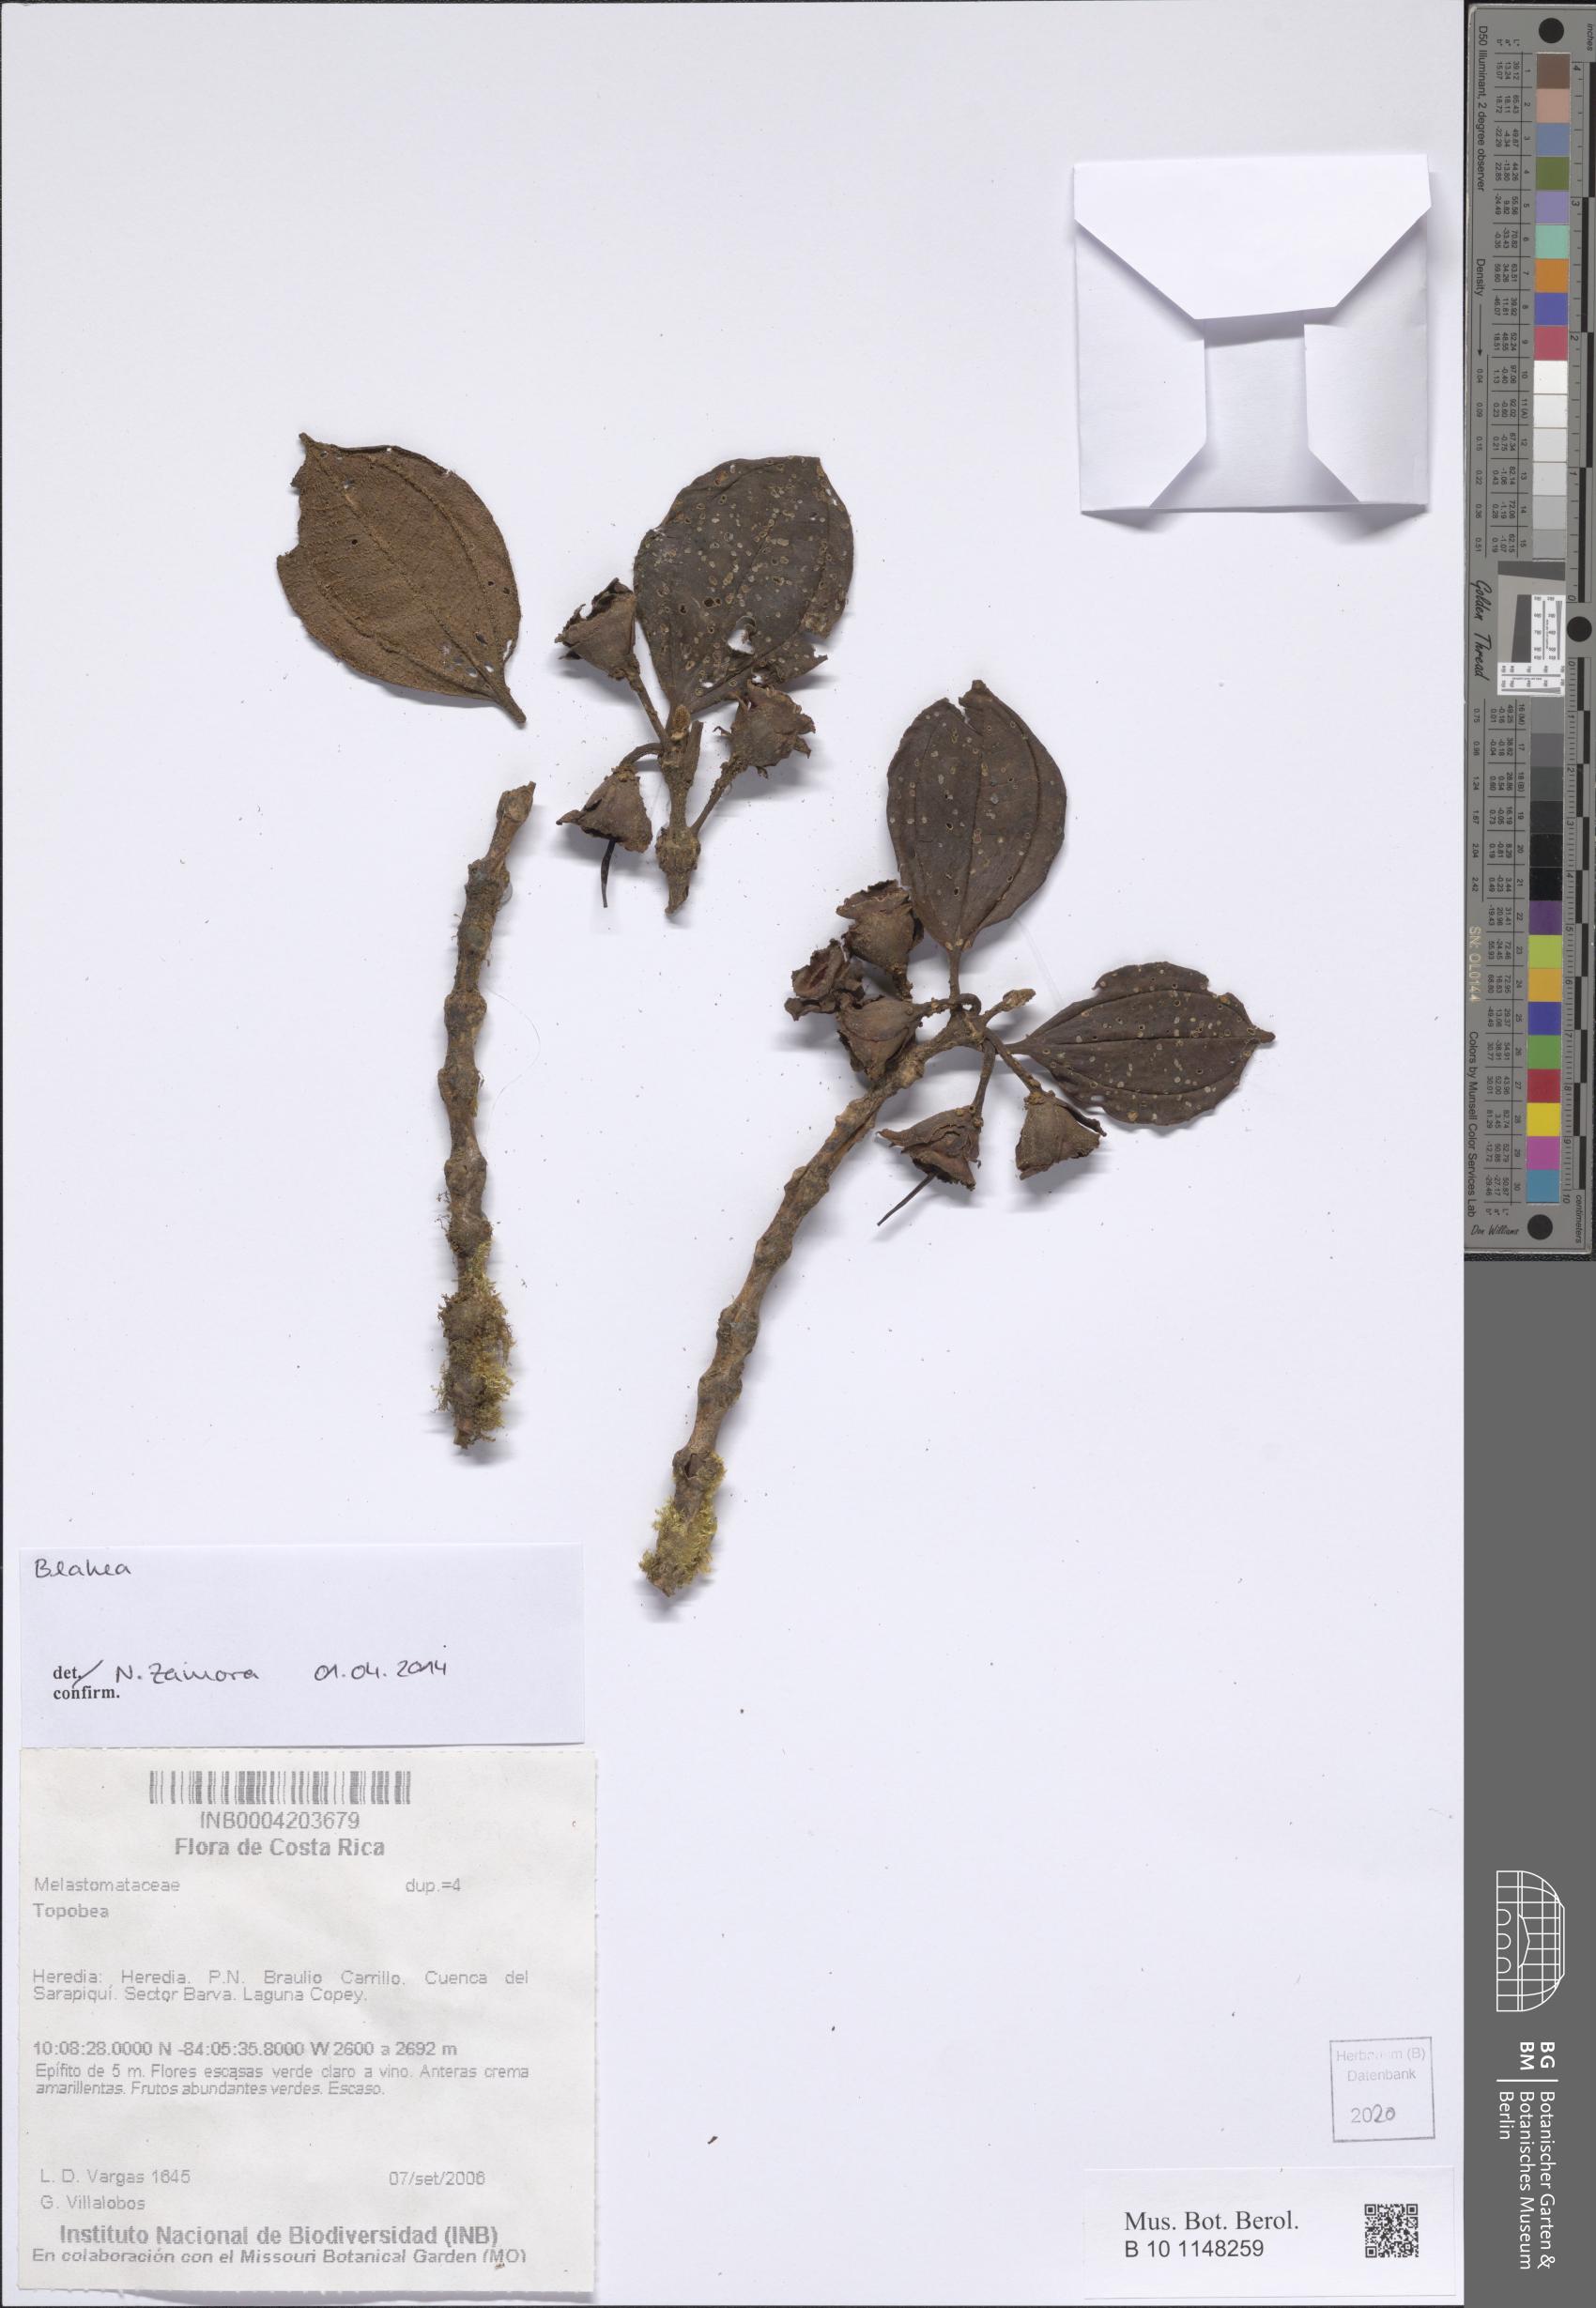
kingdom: Plantae
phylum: Tracheophyta
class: Magnoliopsida
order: Myrtales
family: Melastomataceae
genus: Blakea
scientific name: Blakea
